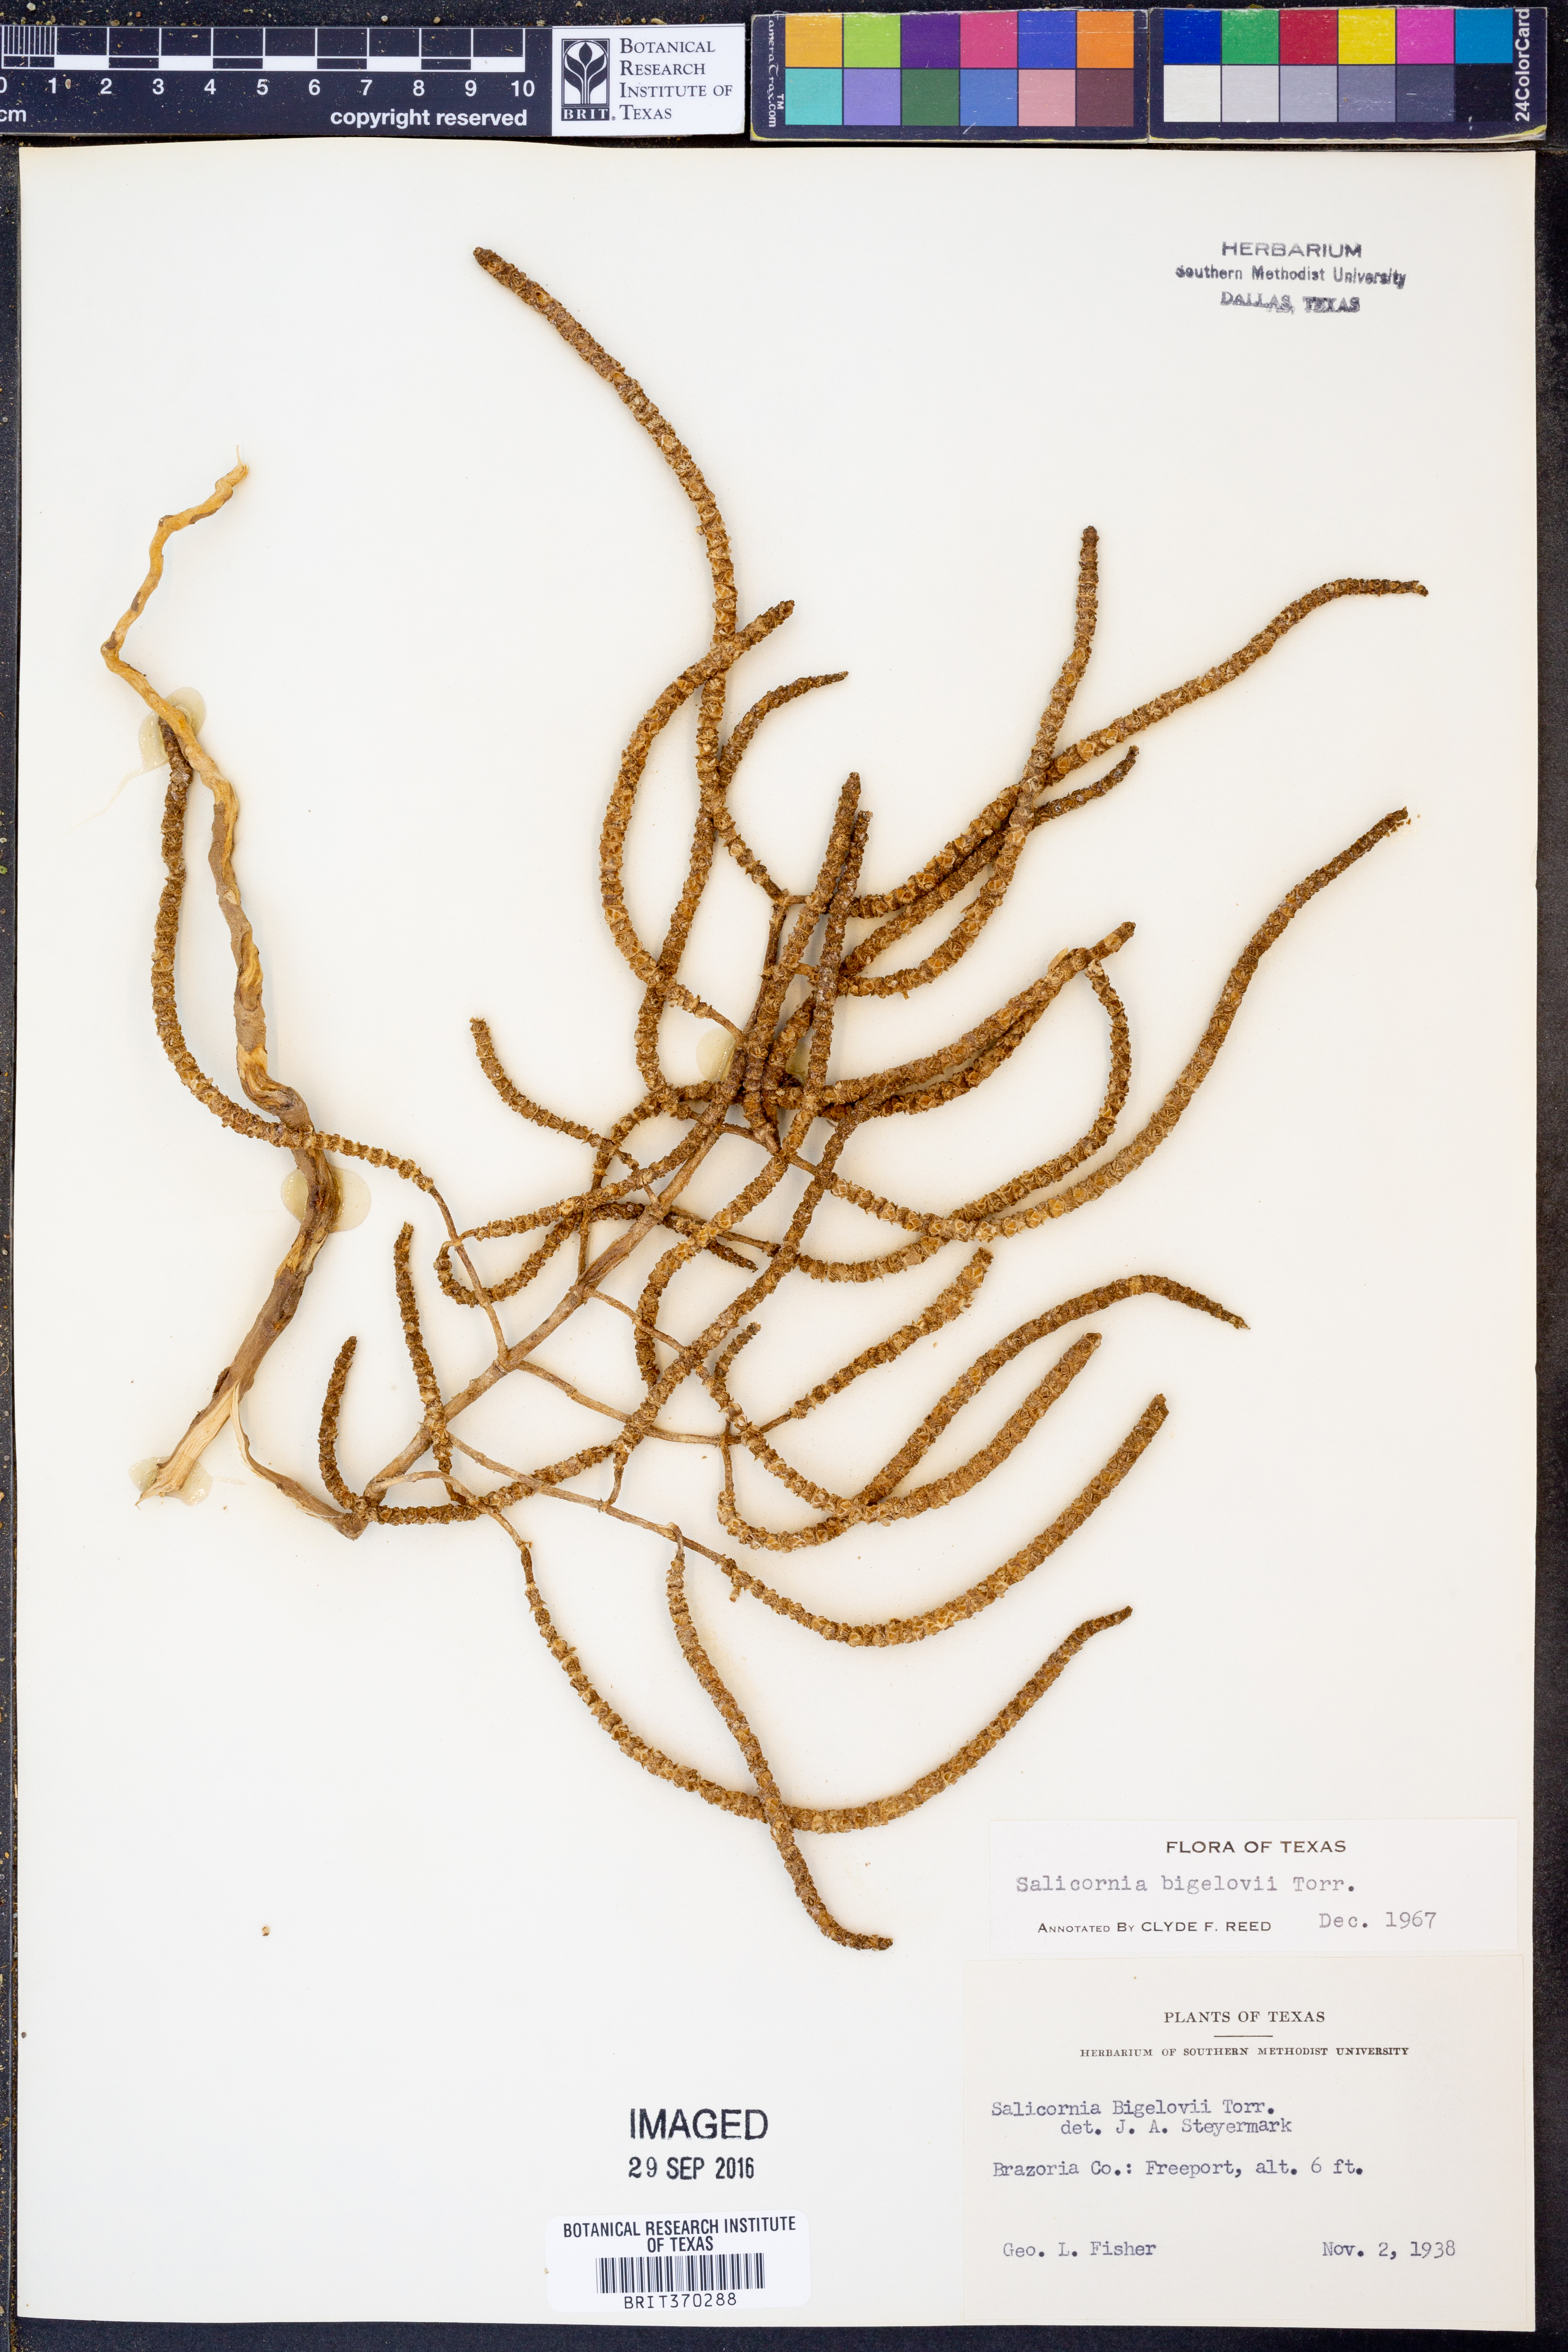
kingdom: Plantae
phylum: Tracheophyta
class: Magnoliopsida
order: Caryophyllales
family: Amaranthaceae
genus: Salicornia
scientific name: Salicornia bigelovii
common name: Dwarf glasswort
